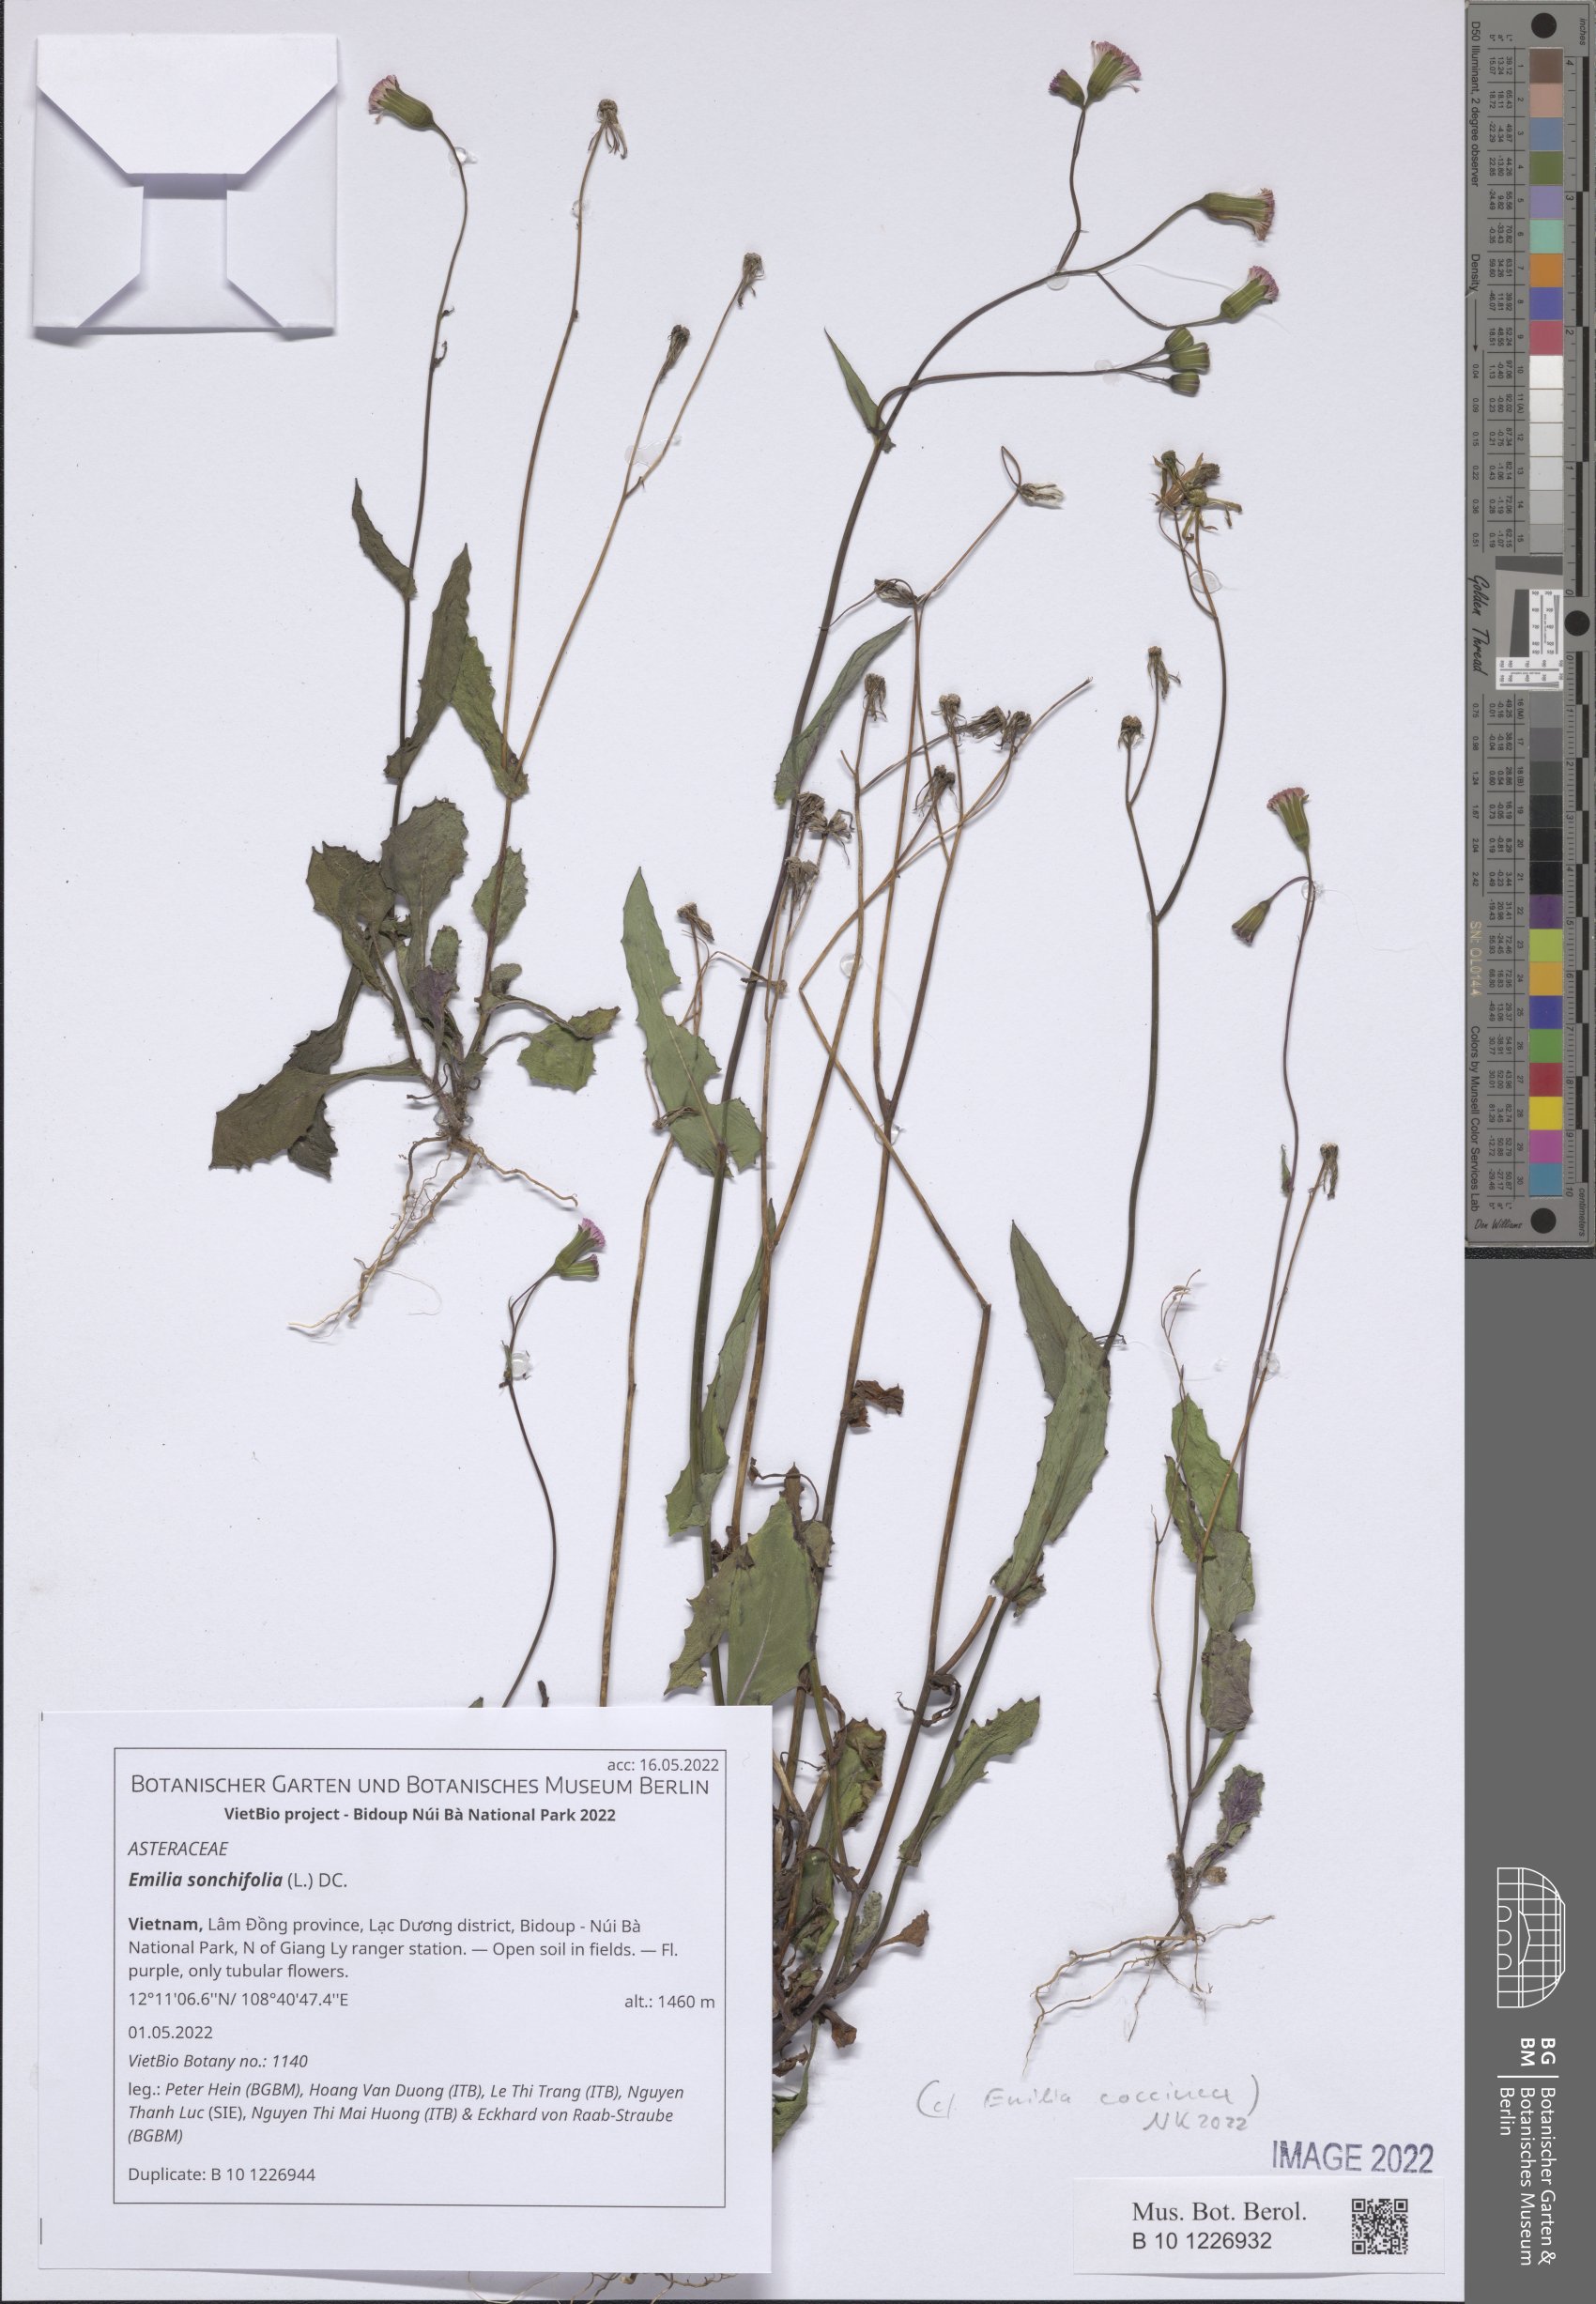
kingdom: Plantae
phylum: Tracheophyta
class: Magnoliopsida
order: Asterales
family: Asteraceae
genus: Emilia
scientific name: Emilia sonchifolia
